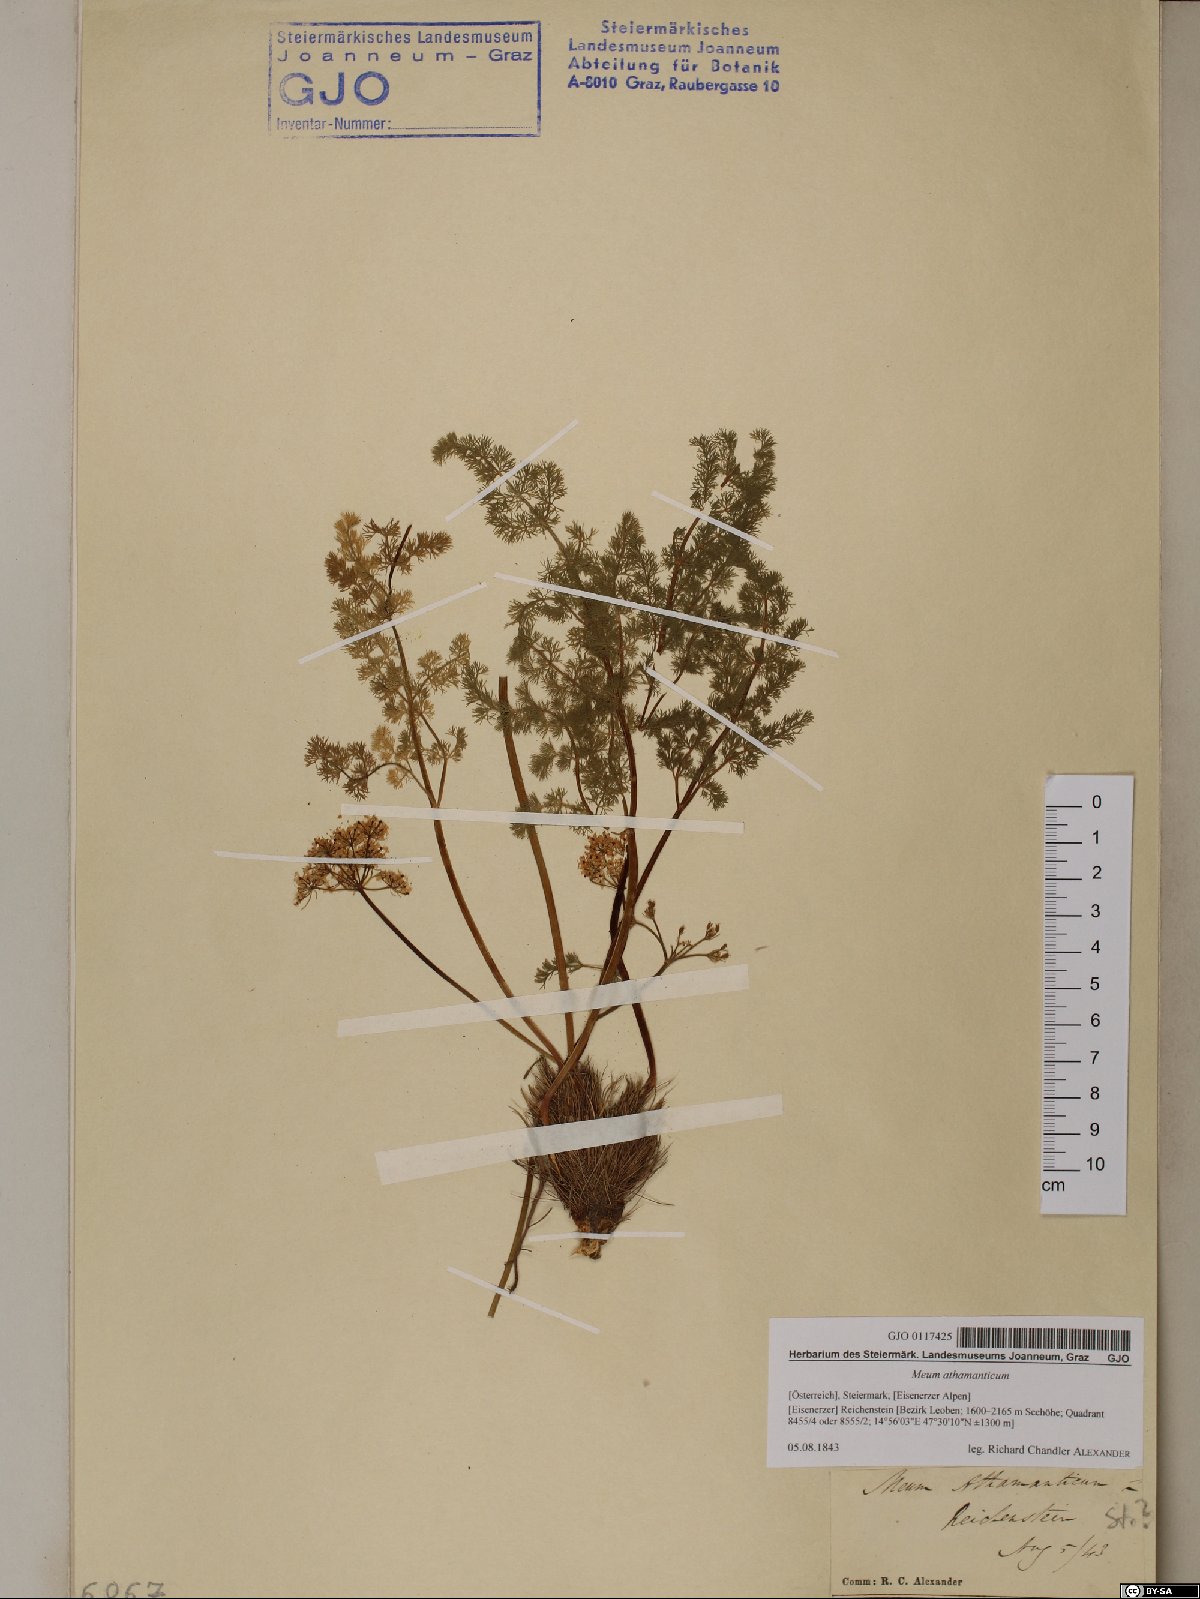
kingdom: Plantae
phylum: Tracheophyta
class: Magnoliopsida
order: Apiales
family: Apiaceae
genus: Meum
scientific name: Meum athamanticum
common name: Spignel
